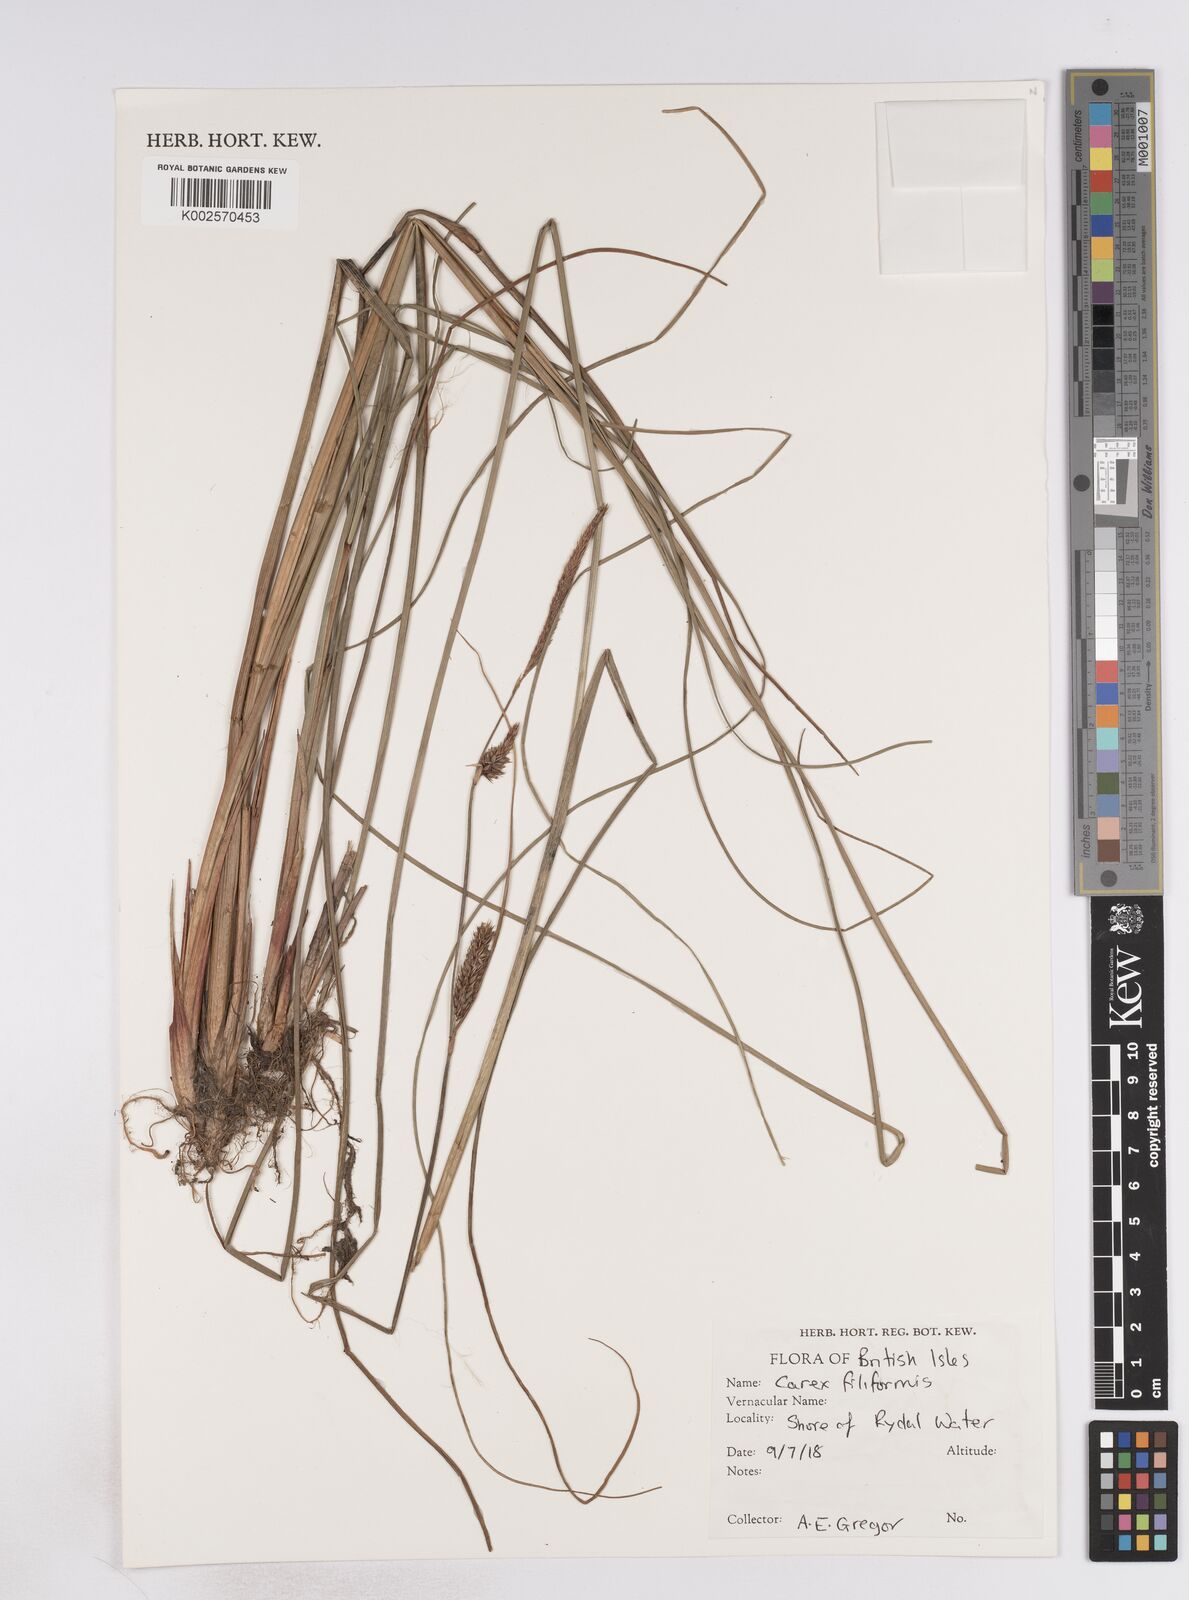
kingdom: Plantae
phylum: Tracheophyta
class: Liliopsida
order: Poales
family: Cyperaceae
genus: Carex
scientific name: Carex montana
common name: Soft-leaved sedge
